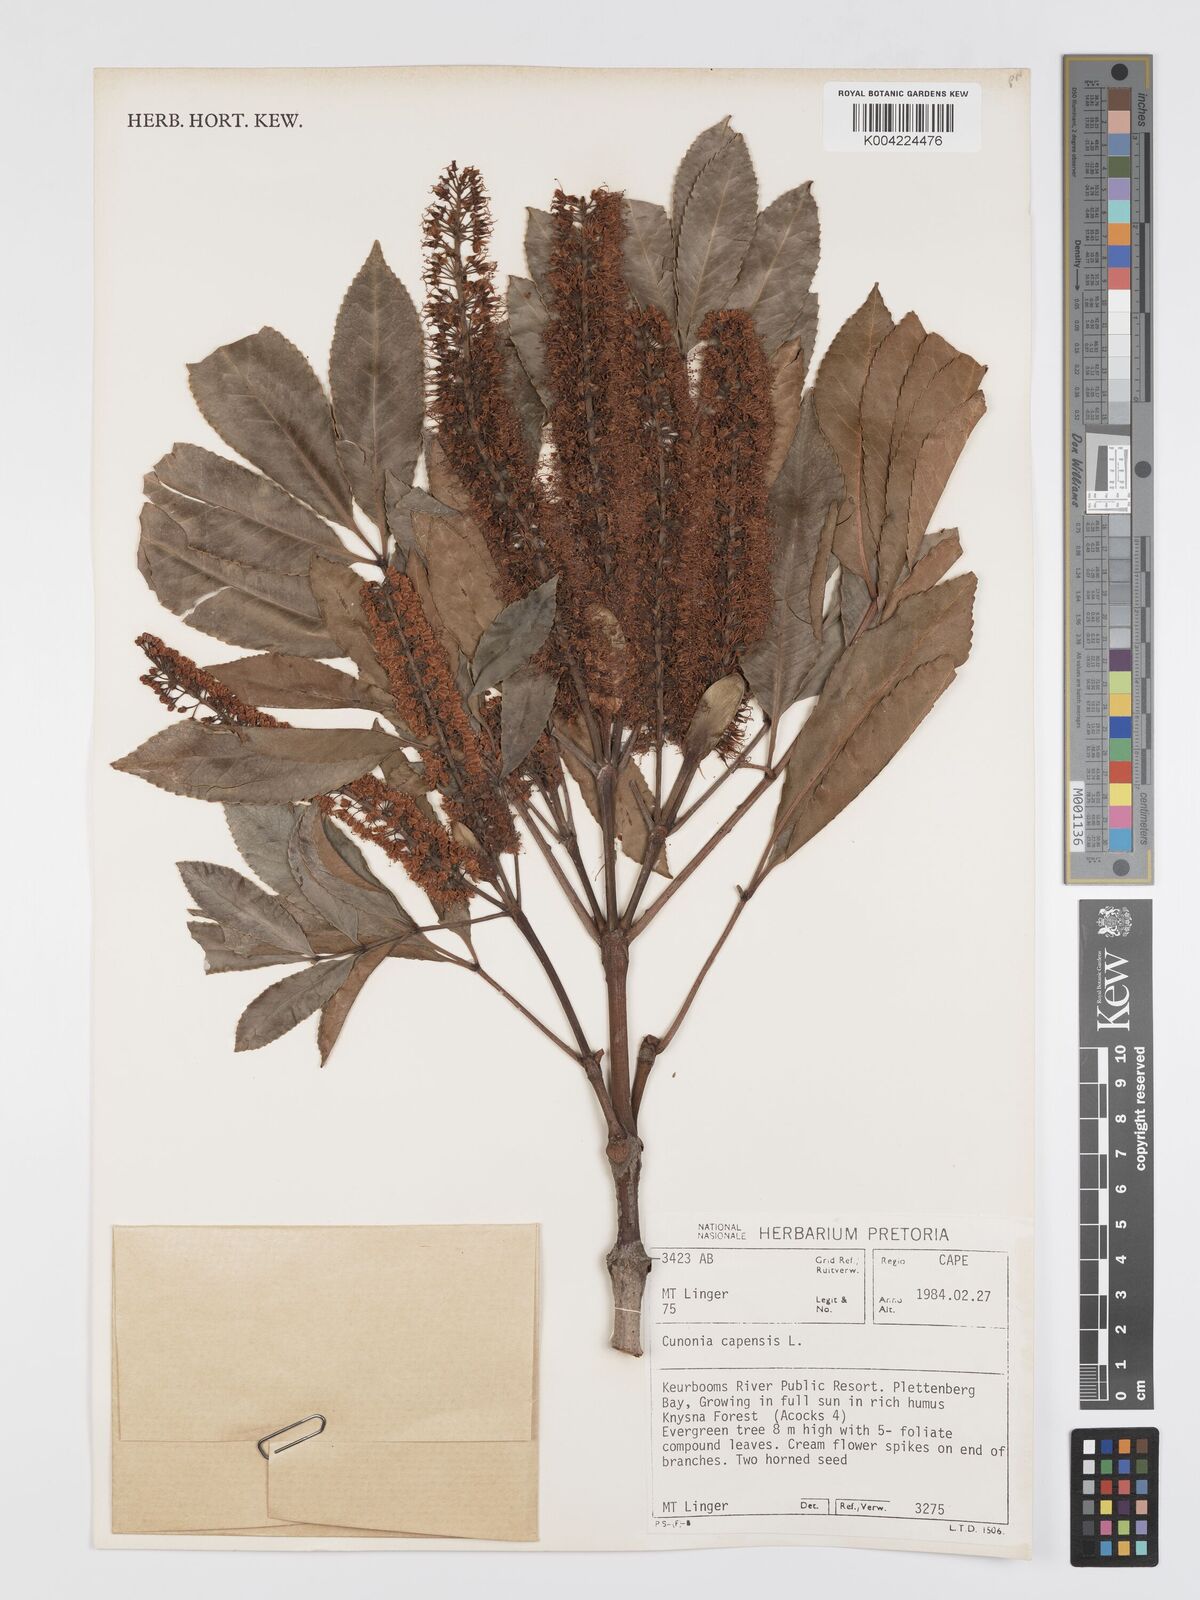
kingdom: Plantae
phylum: Tracheophyta
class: Magnoliopsida
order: Oxalidales
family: Cunoniaceae
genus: Cunonia
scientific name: Cunonia
